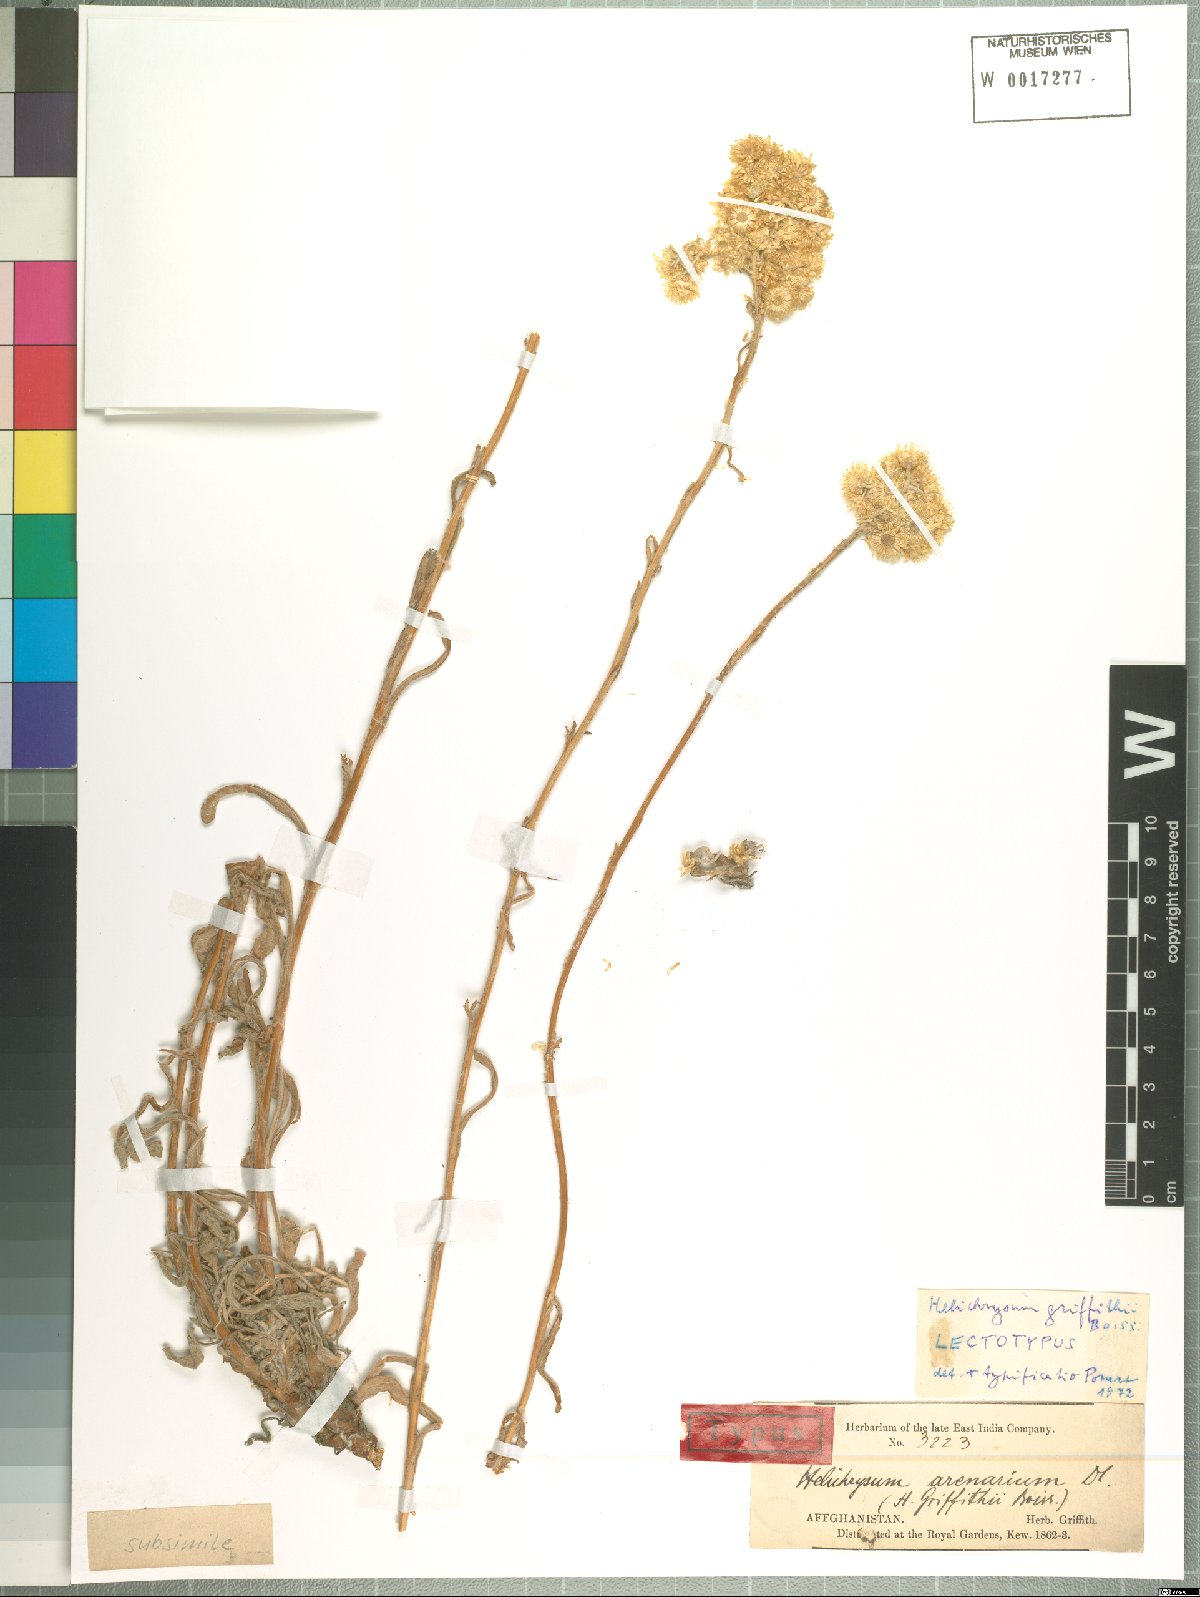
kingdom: Plantae
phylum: Tracheophyta
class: Magnoliopsida
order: Asterales
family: Asteraceae
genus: Pseudognaphalium
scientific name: Pseudognaphalium affine
